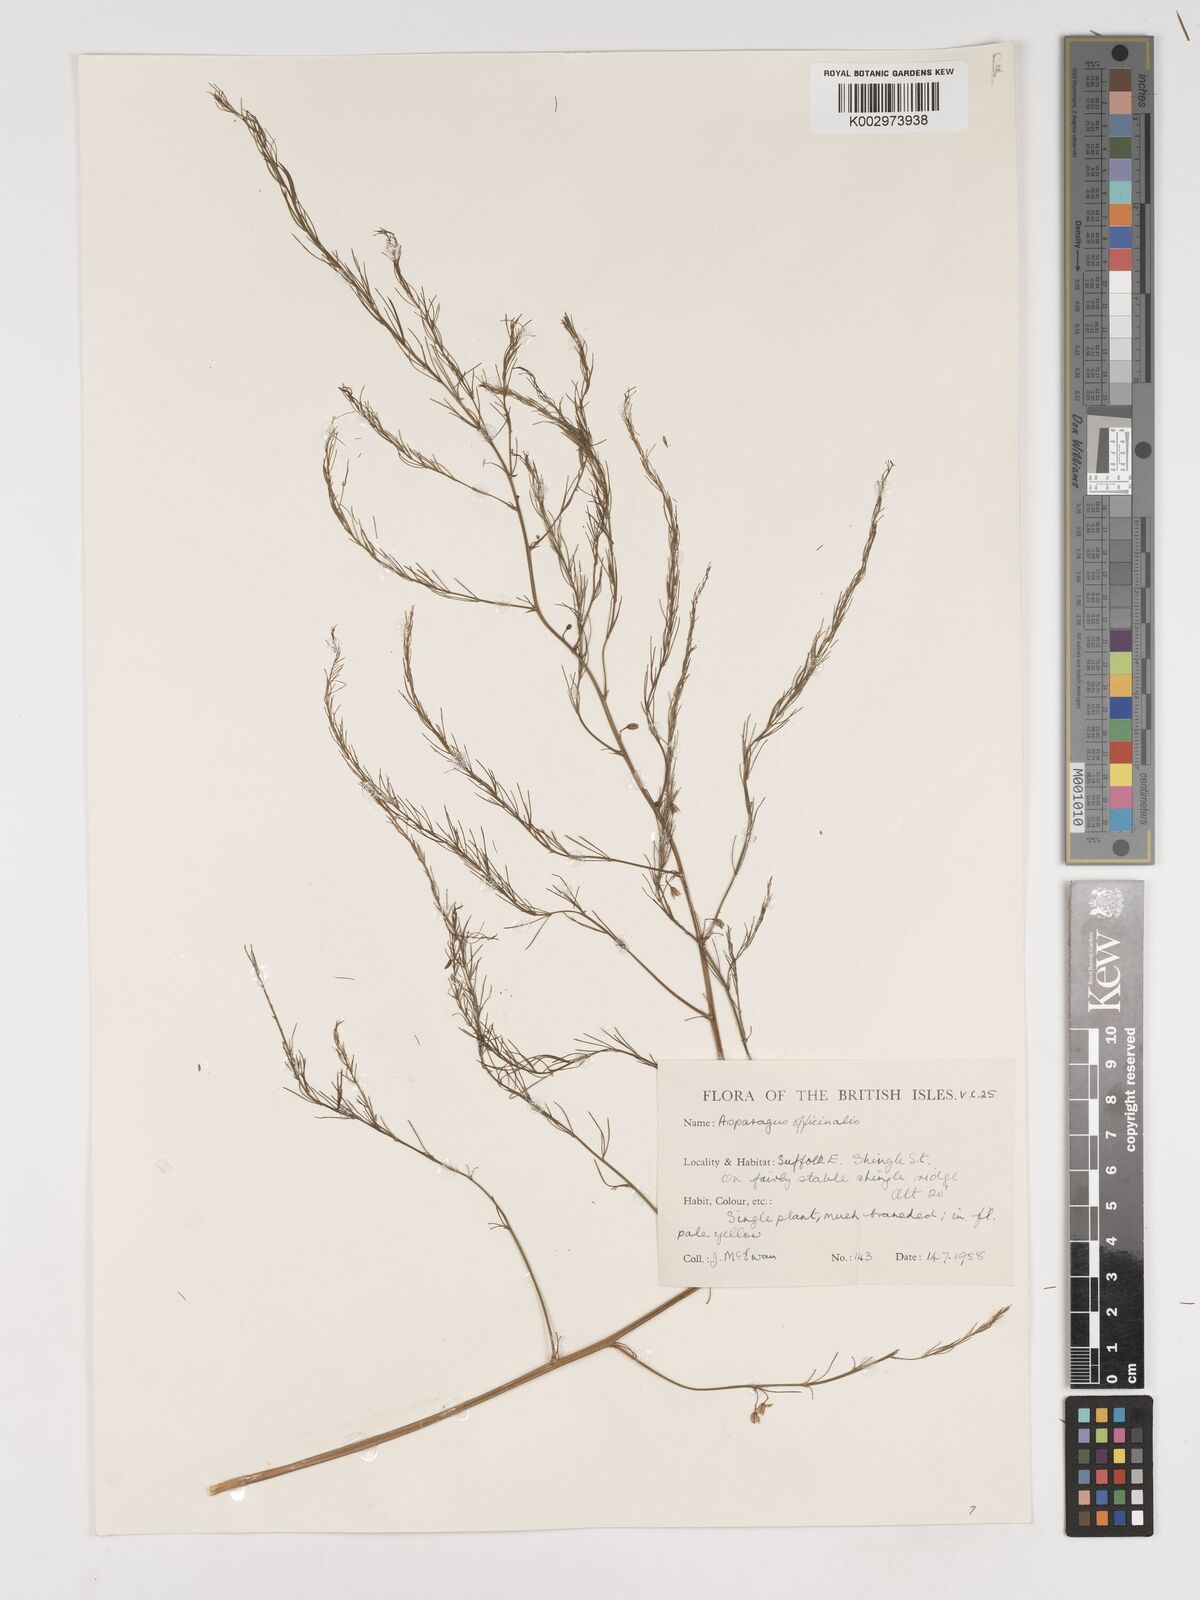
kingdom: Plantae
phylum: Tracheophyta
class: Liliopsida
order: Asparagales
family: Asparagaceae
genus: Asparagus
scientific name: Asparagus officinalis
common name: Garden asparagus
